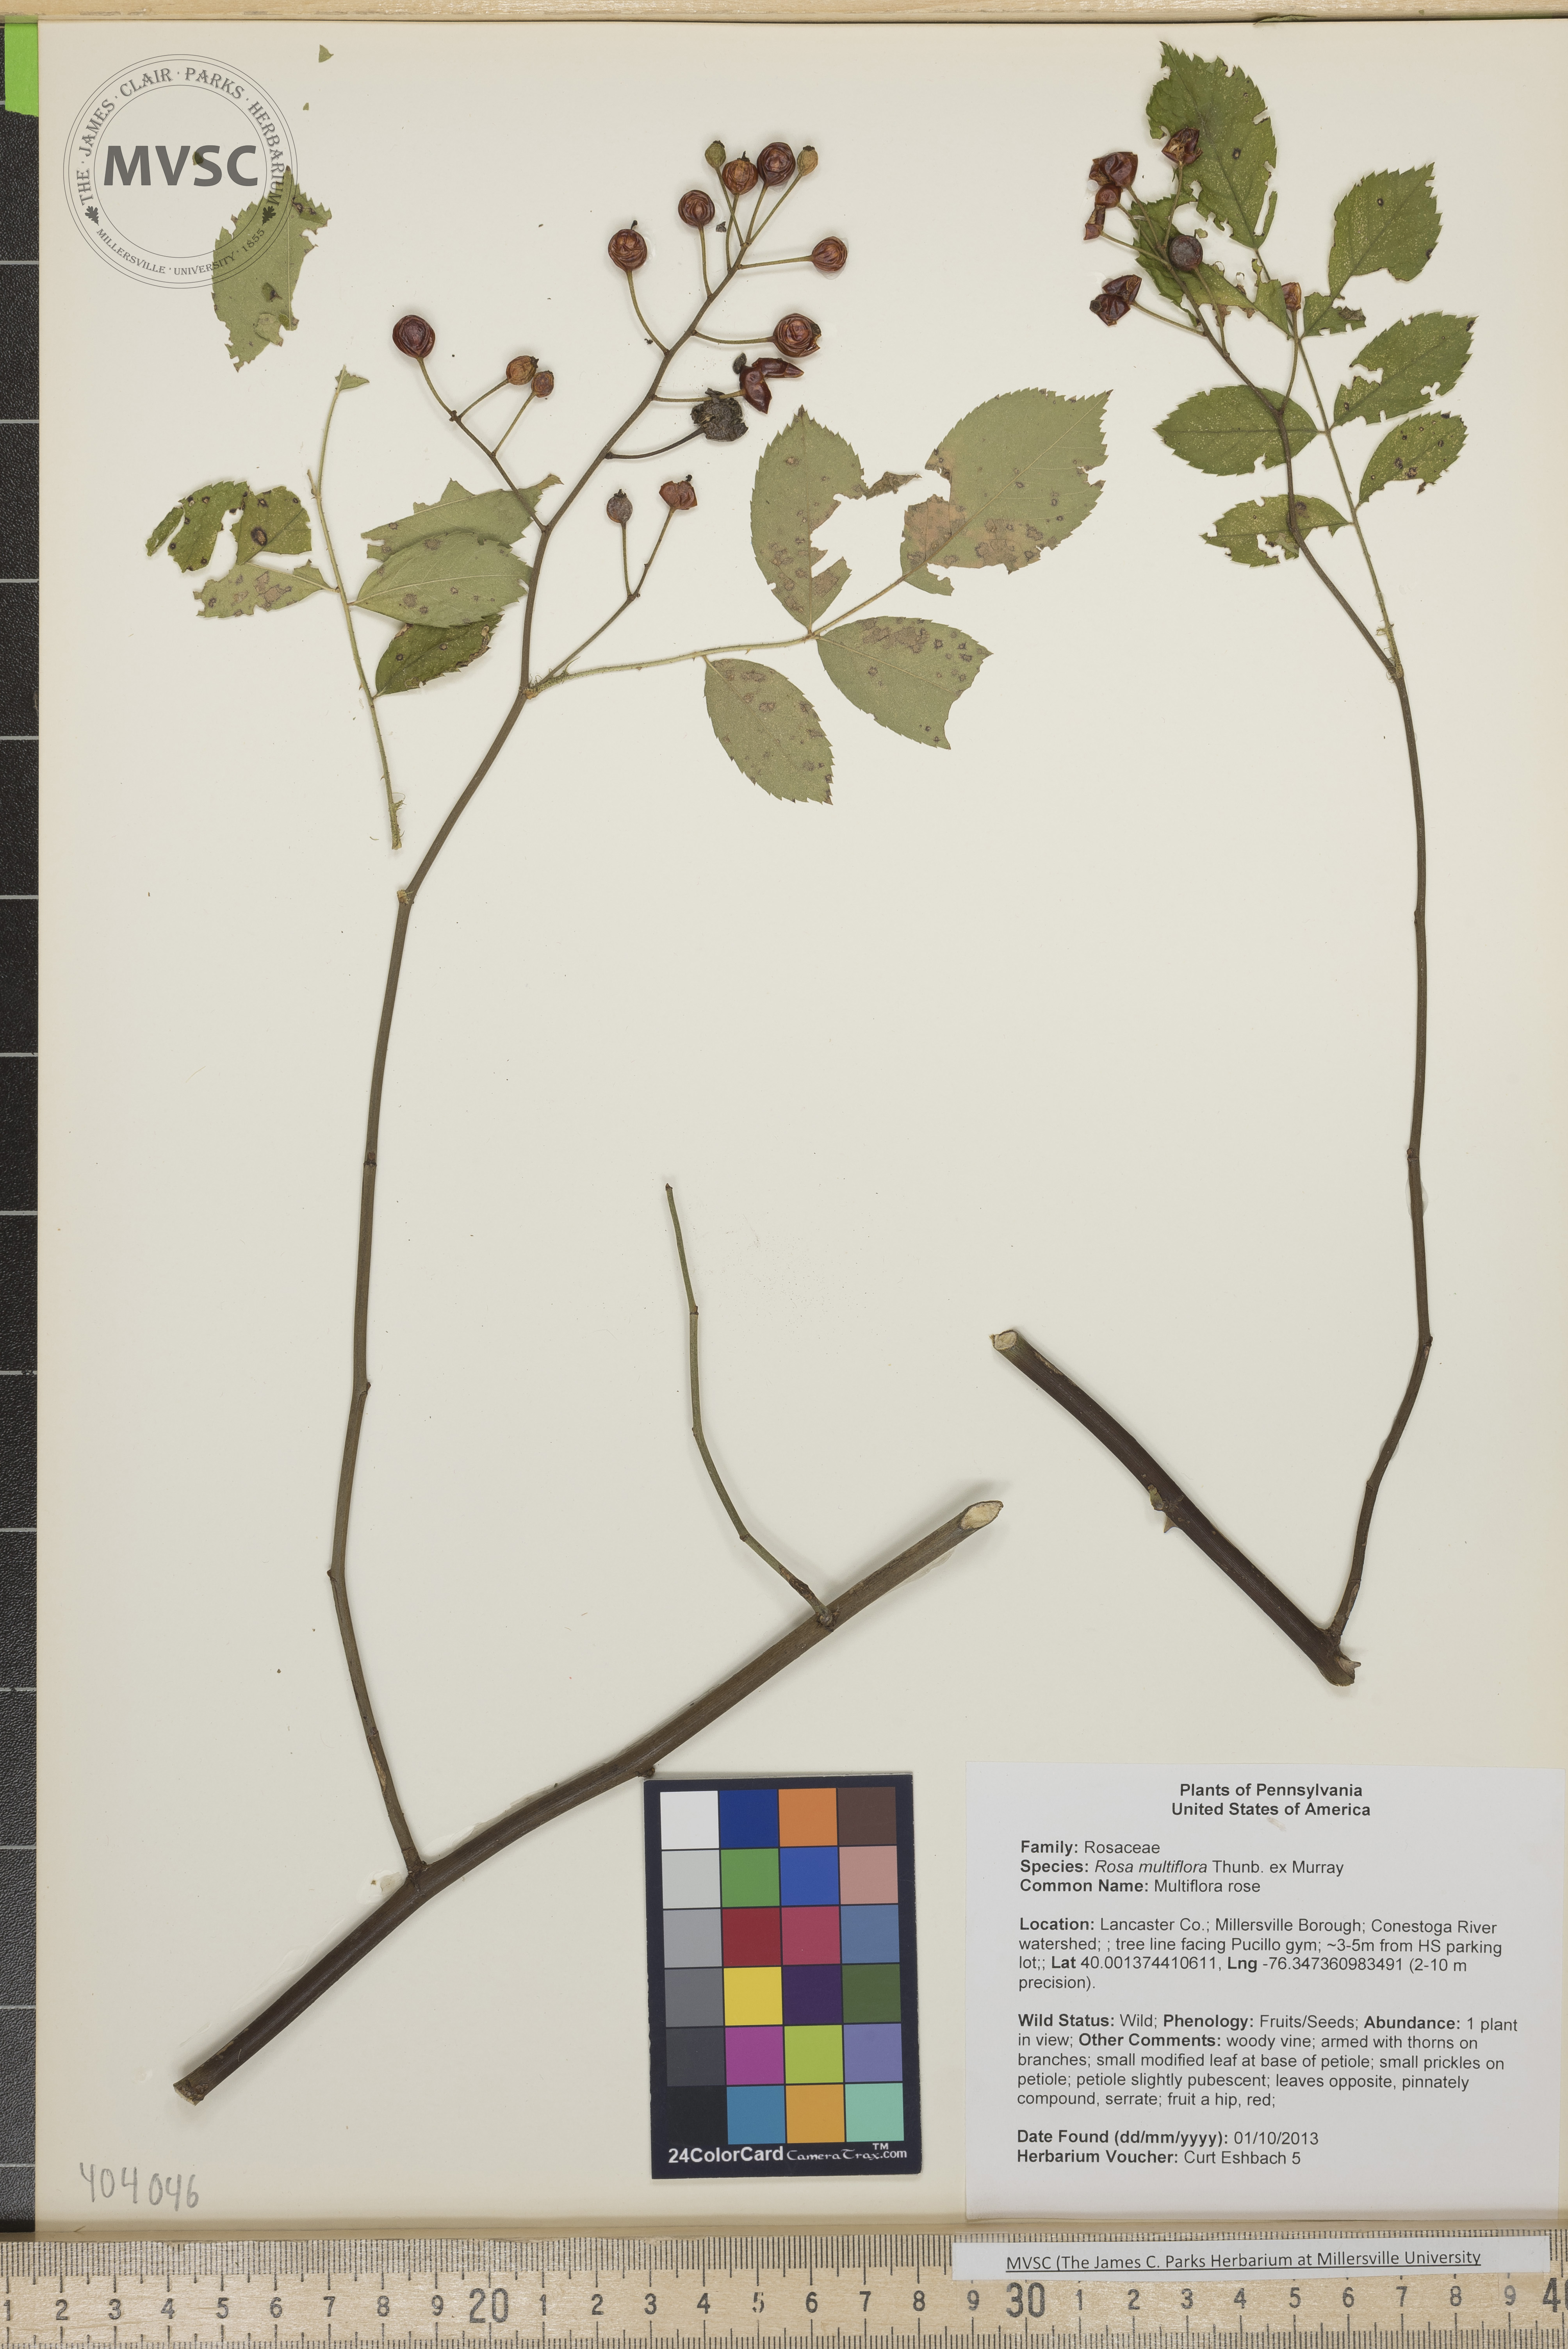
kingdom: Plantae
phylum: Tracheophyta
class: Magnoliopsida
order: Rosales
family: Rosaceae
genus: Rosa
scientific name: Rosa multiflora
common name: multiflora rose
